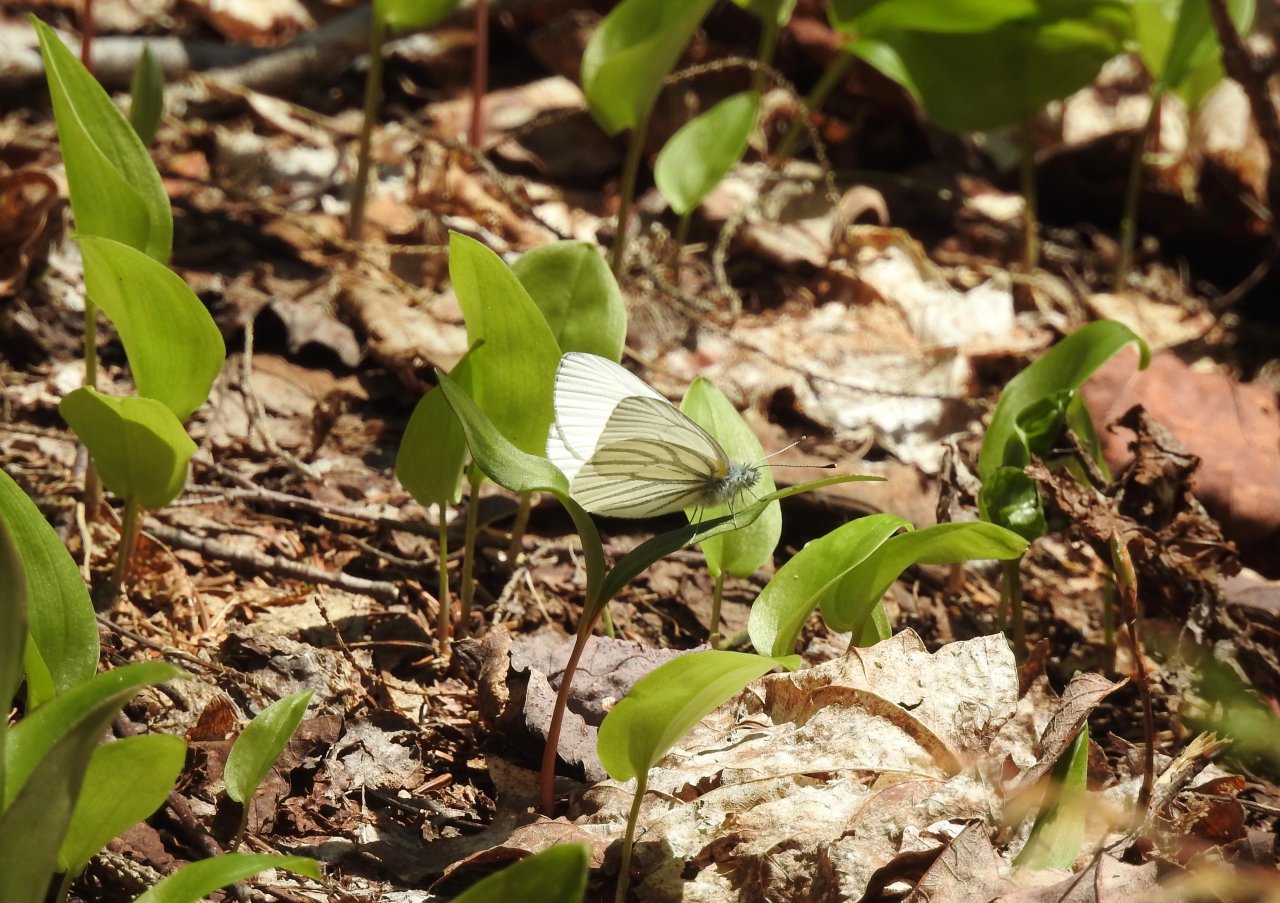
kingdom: Animalia
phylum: Arthropoda
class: Insecta
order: Lepidoptera
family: Pieridae
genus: Pieris
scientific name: Pieris oleracea
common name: Mustard White
